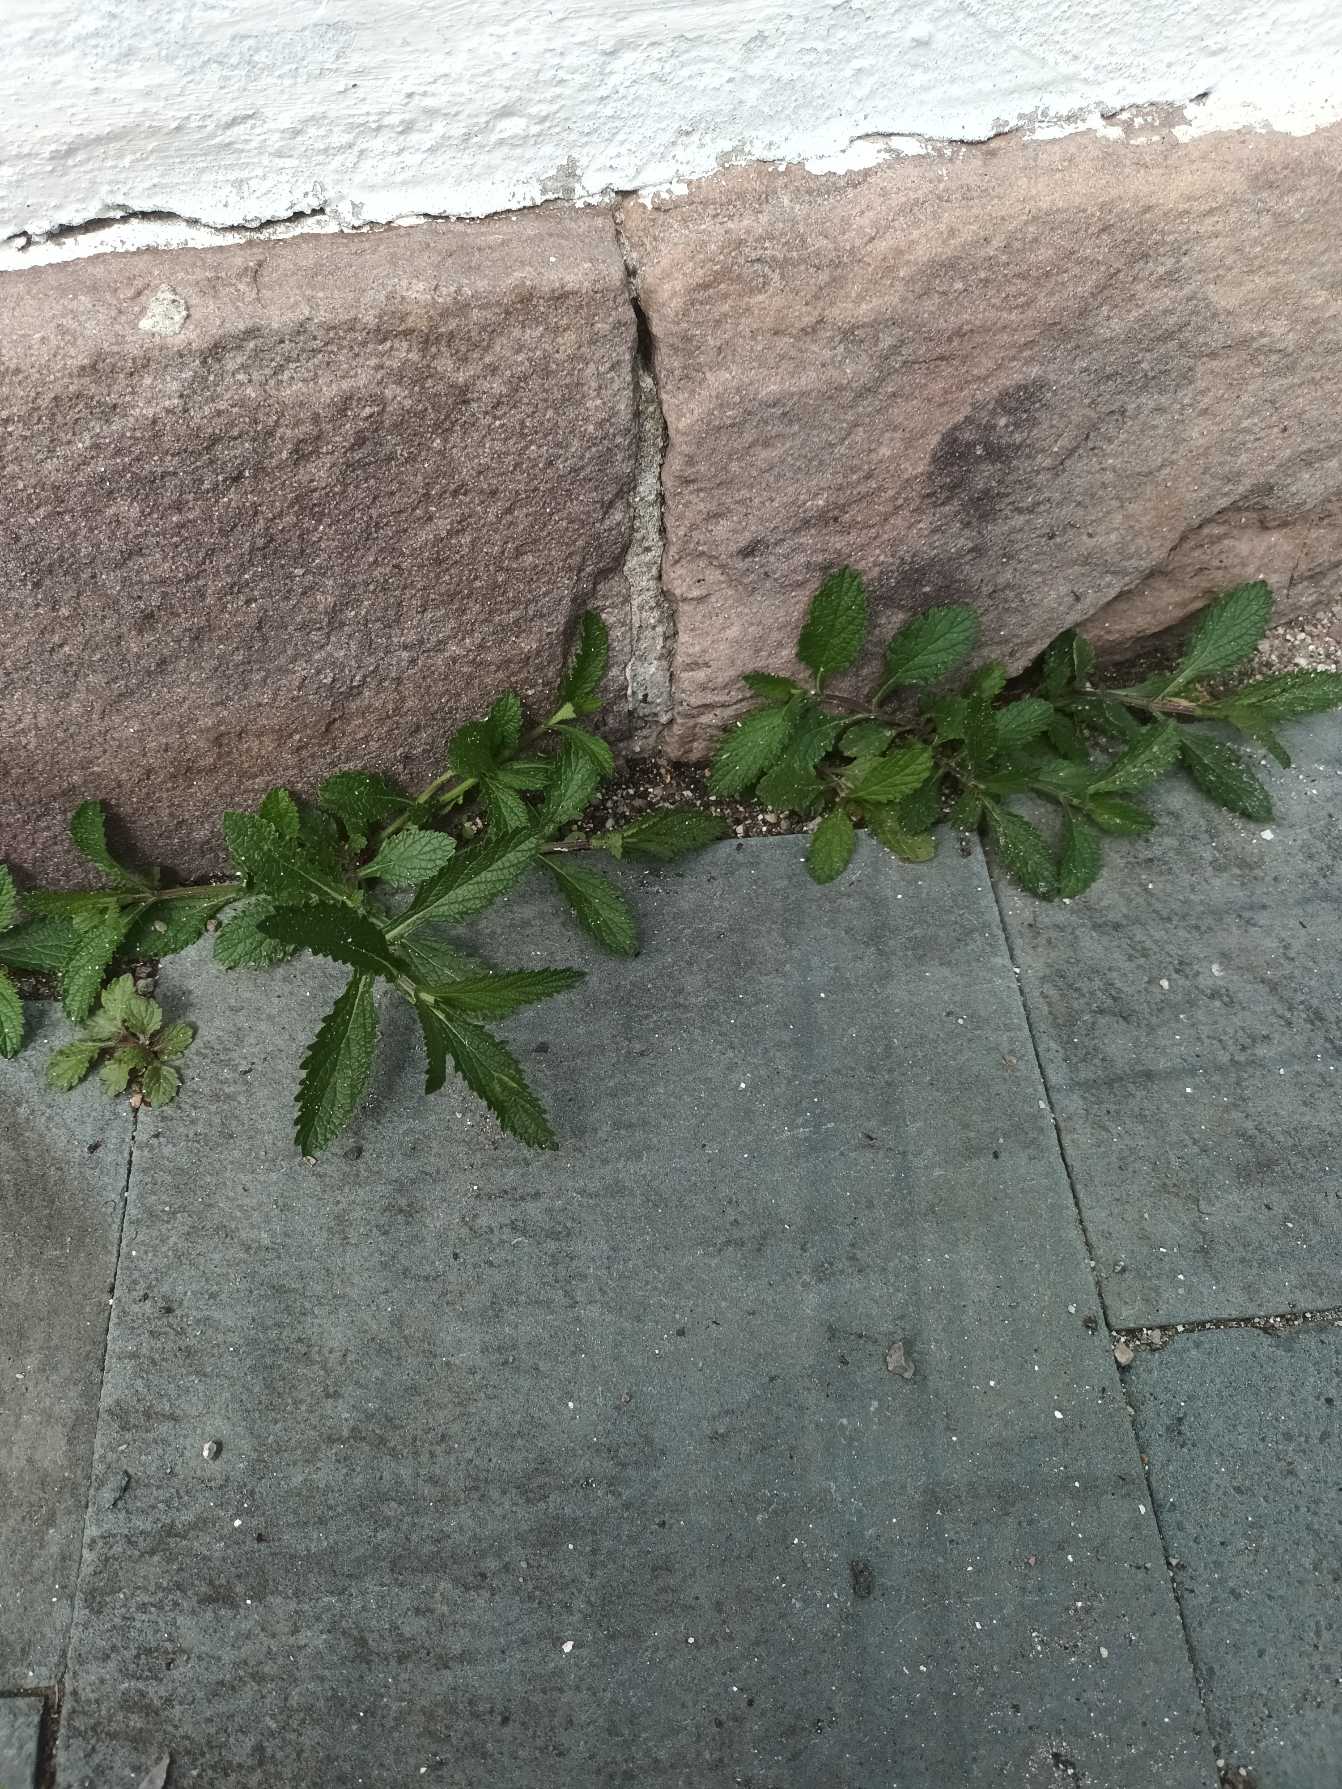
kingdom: Plantae
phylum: Tracheophyta
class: Magnoliopsida
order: Lamiales
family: Verbenaceae
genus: Verbena
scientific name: Verbena bonariensis
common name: Kæmpe-jernurt
